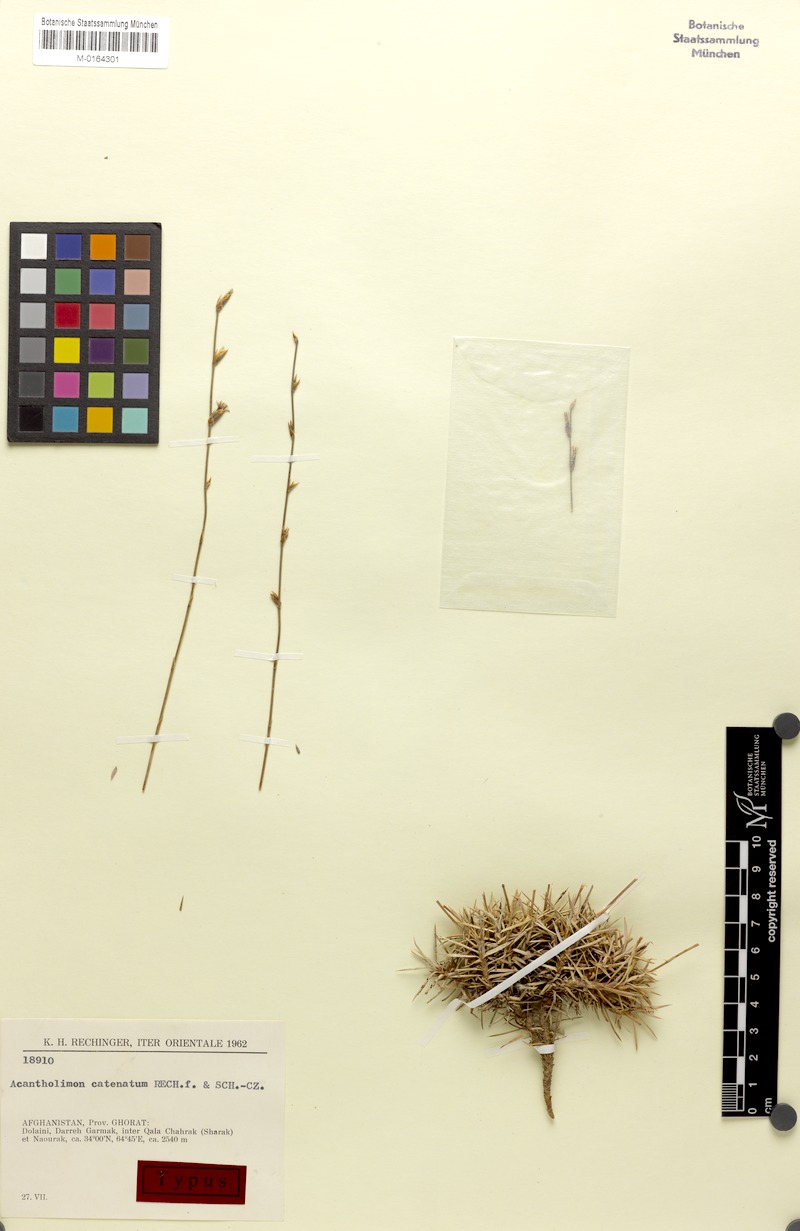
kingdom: Plantae
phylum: Tracheophyta
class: Magnoliopsida
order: Caryophyllales
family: Plumbaginaceae
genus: Acantholimon
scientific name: Acantholimon catenatum
